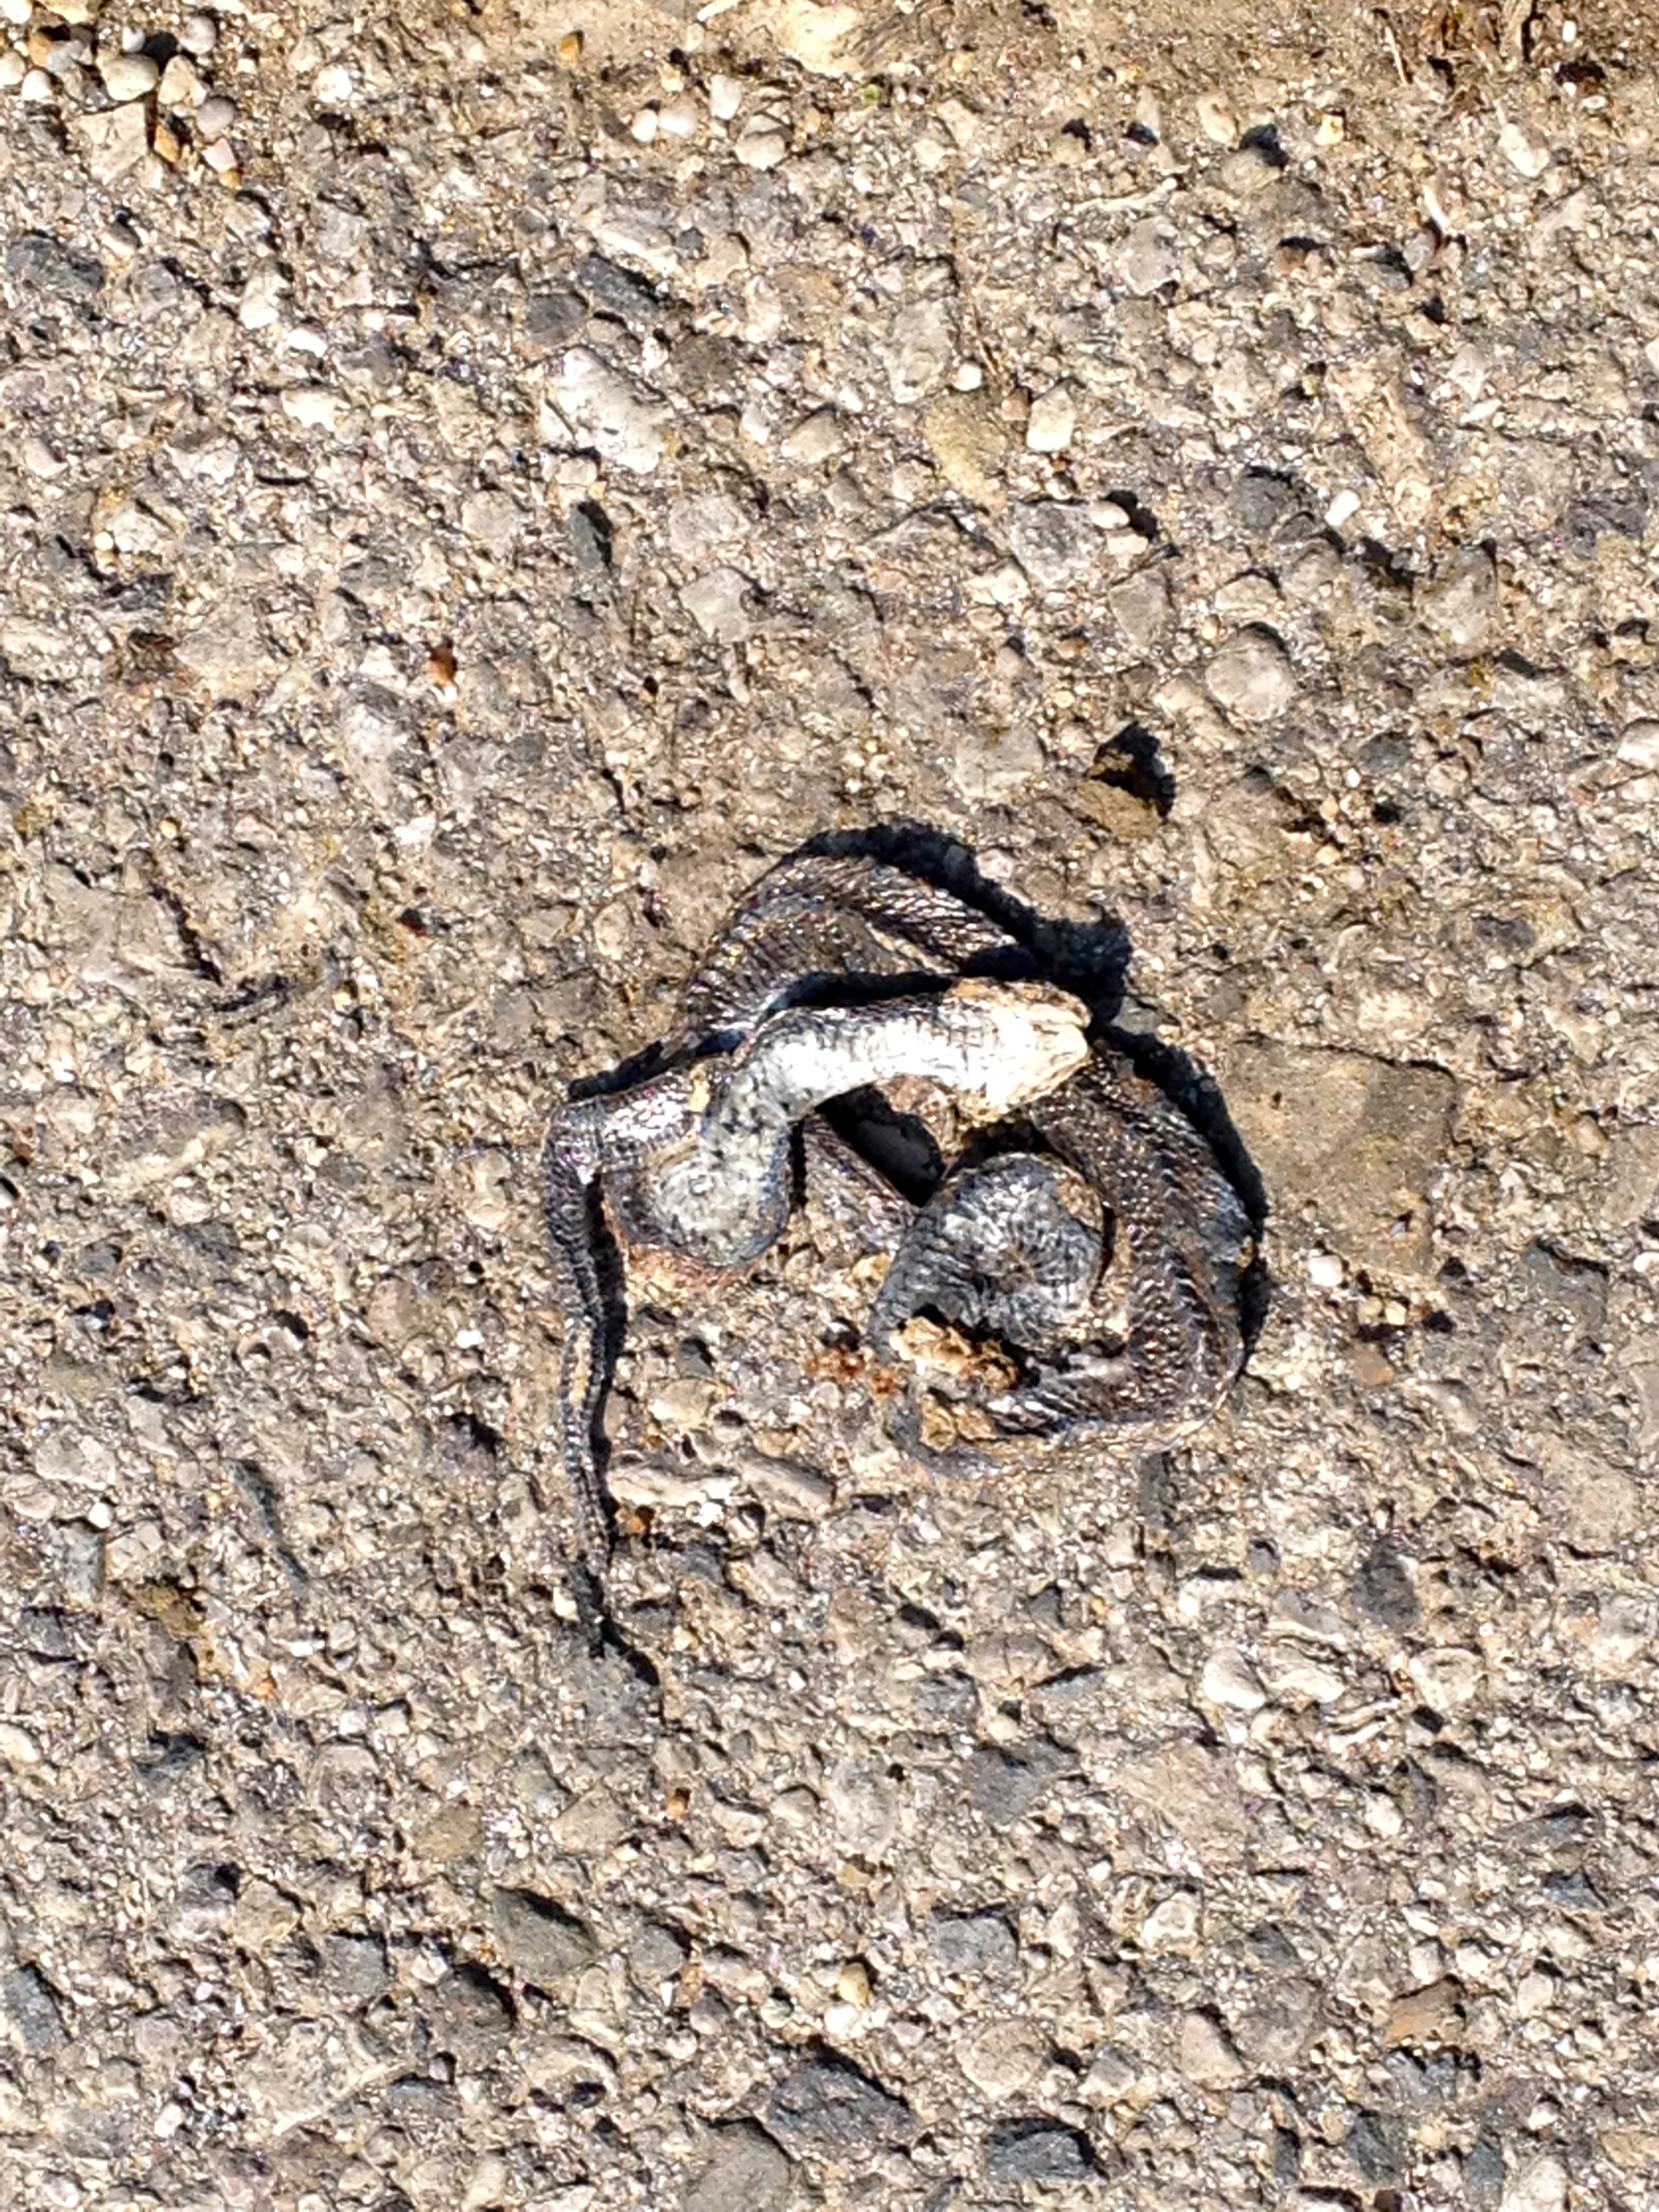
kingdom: Animalia
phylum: Chordata
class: Squamata
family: Colubridae
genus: Natrix
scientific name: Natrix natrix
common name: Grass snake
